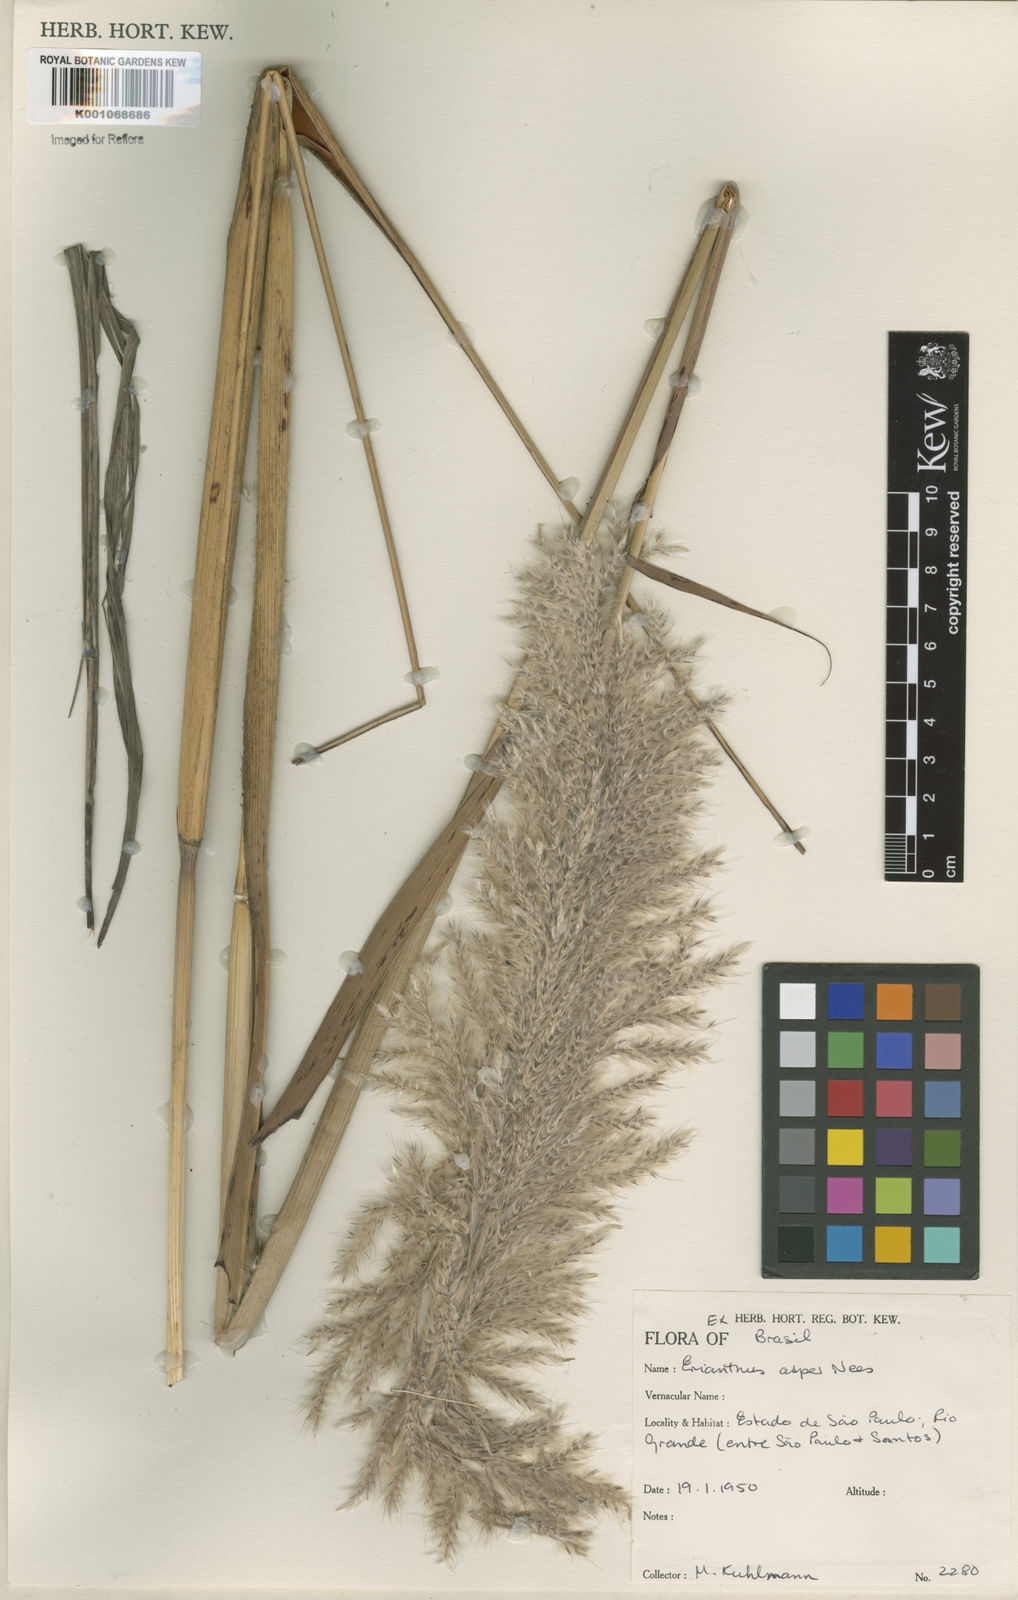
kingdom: Plantae
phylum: Tracheophyta
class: Liliopsida
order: Poales
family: Poaceae
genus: Erianthus
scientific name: Erianthus asper
